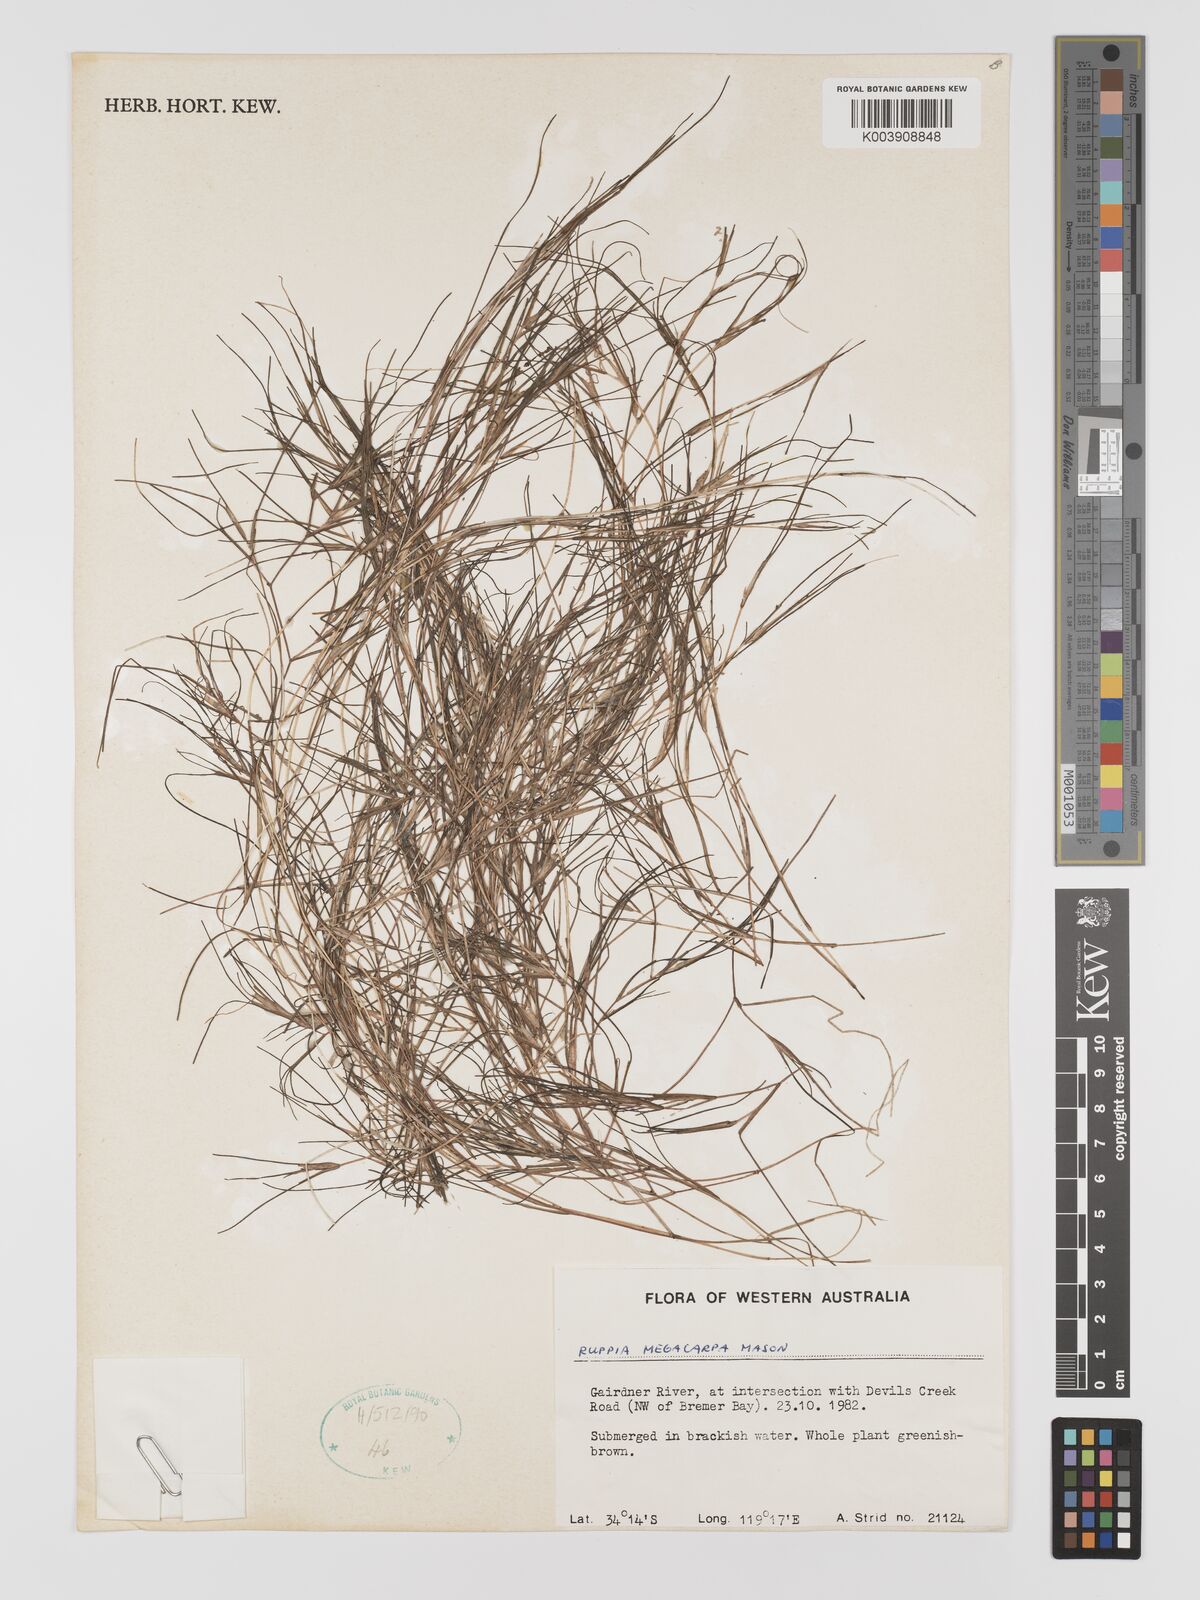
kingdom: Plantae
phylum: Tracheophyta
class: Liliopsida
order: Alismatales
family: Ruppiaceae
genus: Ruppia
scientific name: Ruppia megacarpa
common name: Large-fruit seatassel
